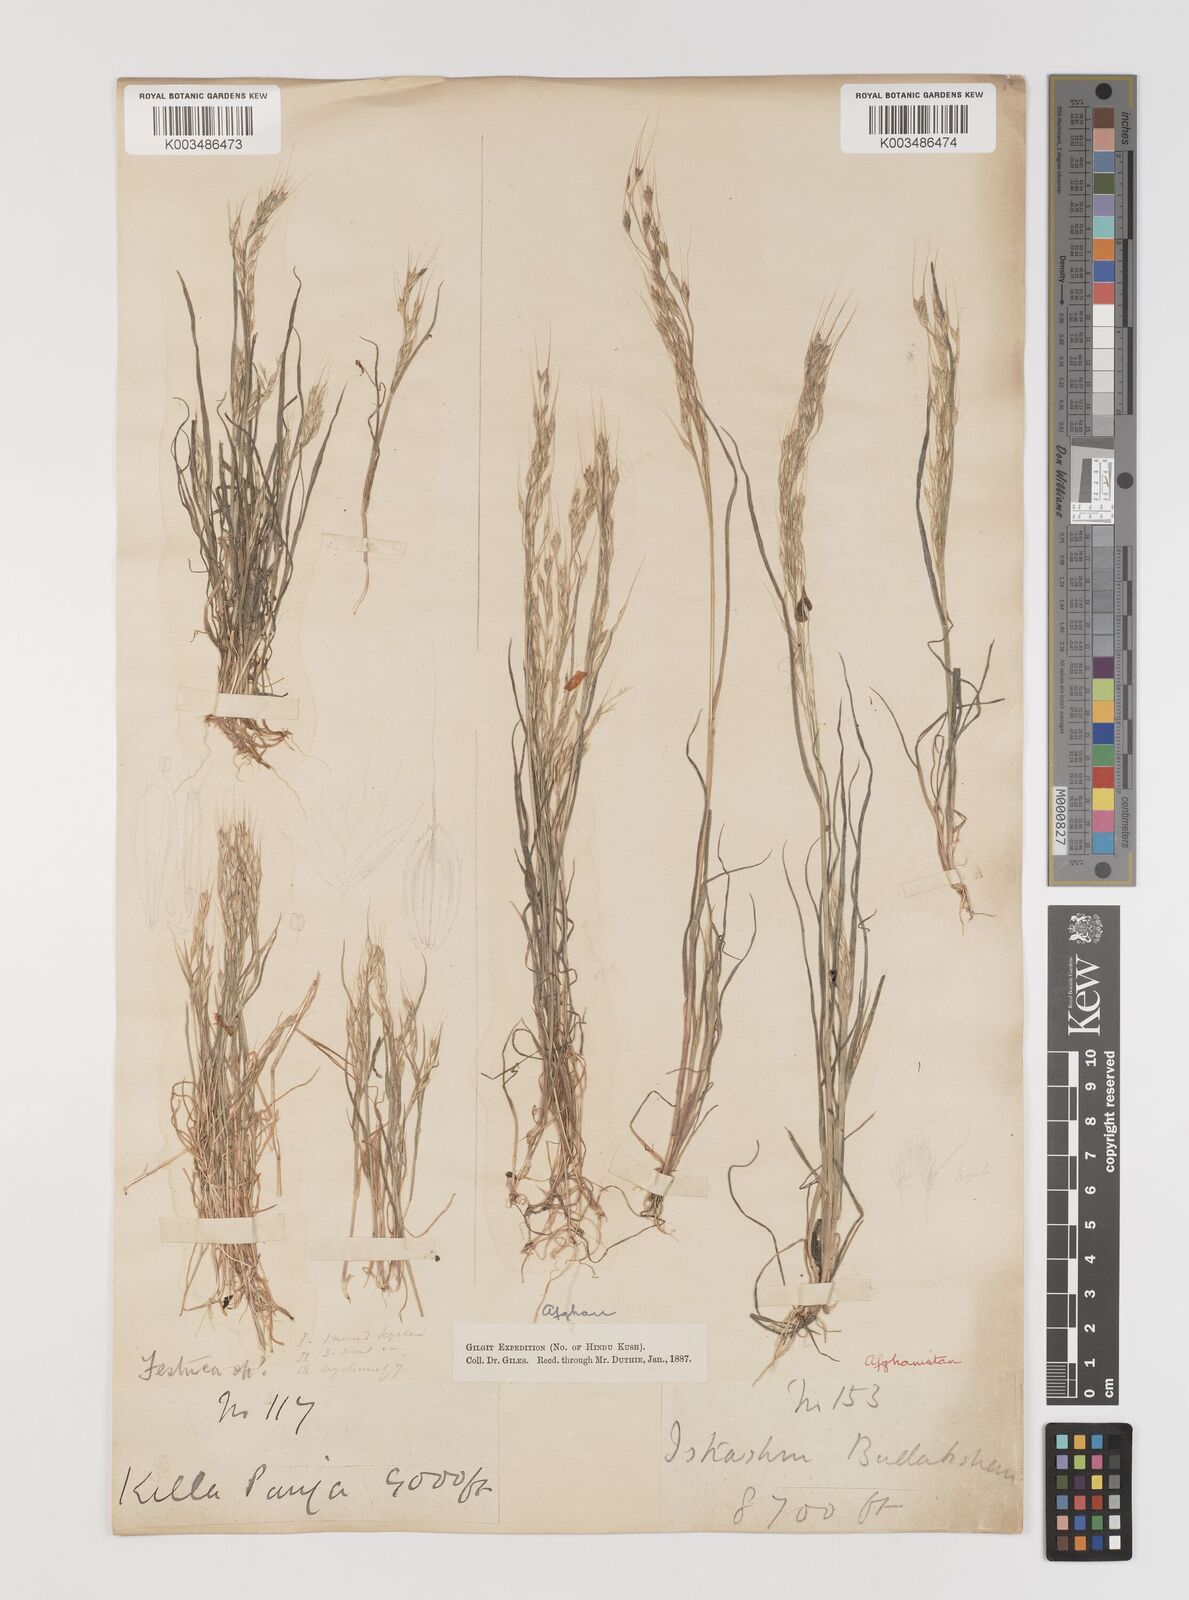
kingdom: Plantae
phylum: Tracheophyta
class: Liliopsida
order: Poales
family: Poaceae
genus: Bromus
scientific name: Bromus gracillimus
